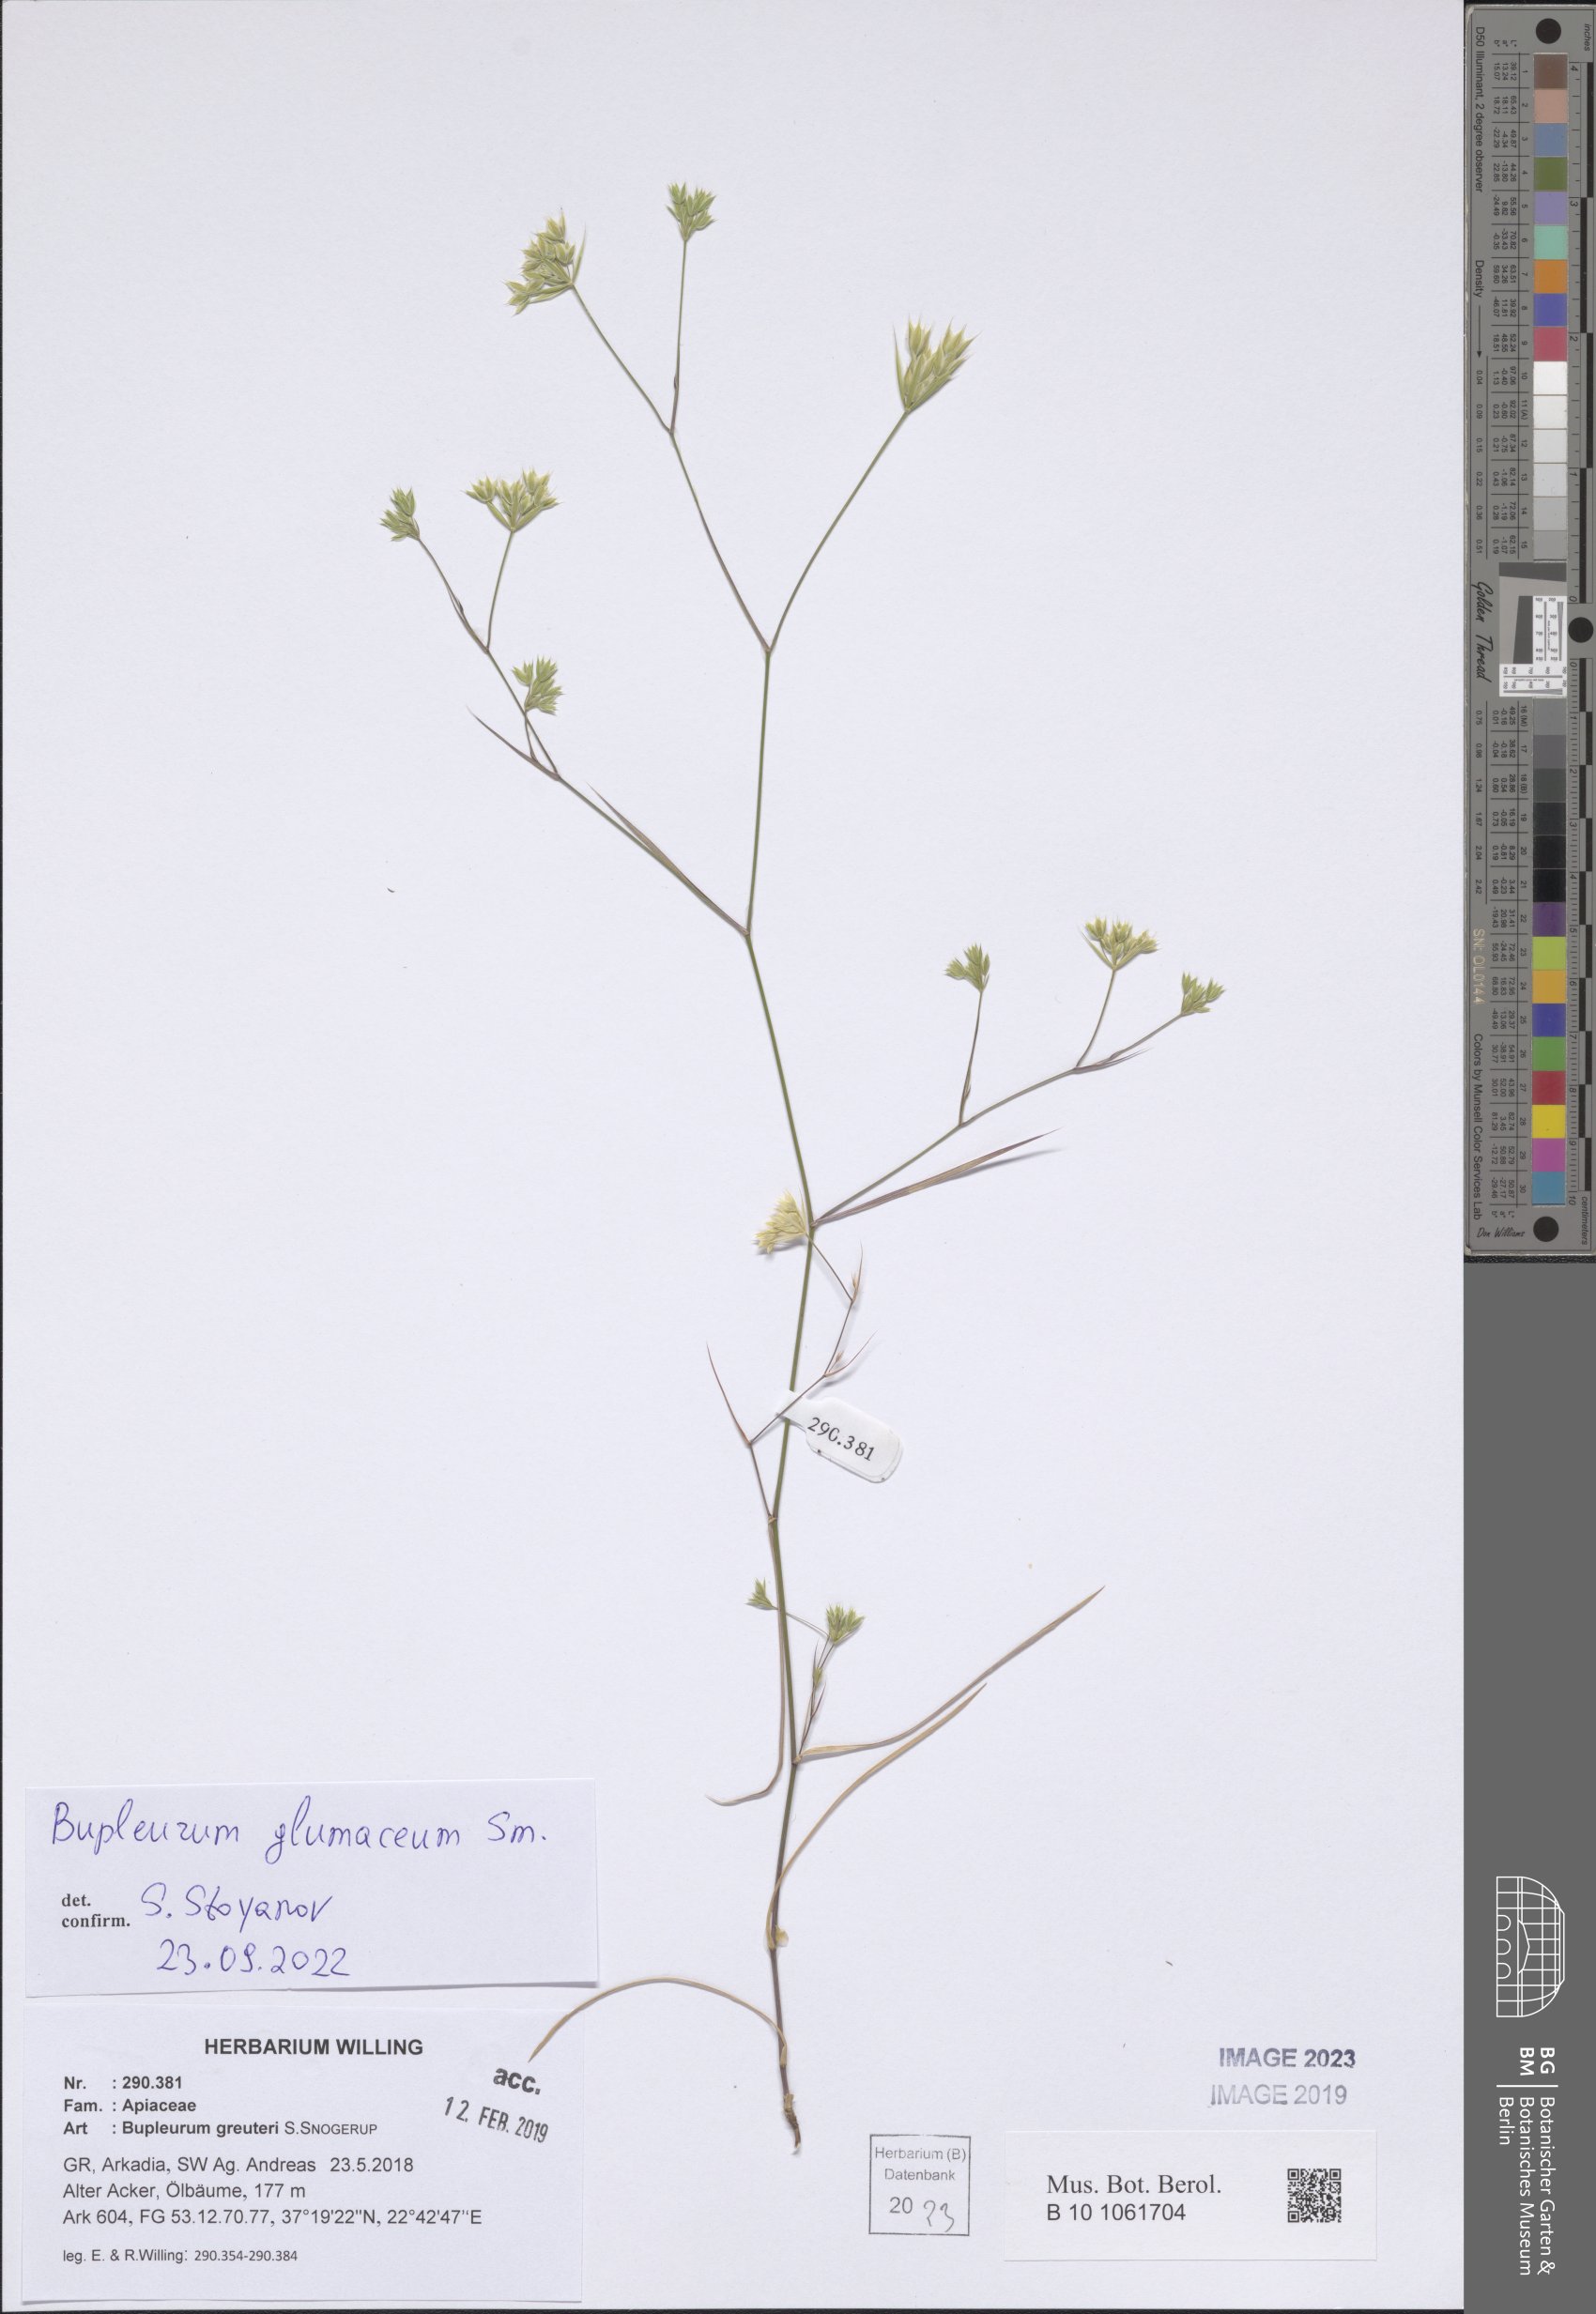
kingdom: Plantae
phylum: Tracheophyta
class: Magnoliopsida
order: Apiales
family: Apiaceae
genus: Bupleurum
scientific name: Bupleurum glumaceum
